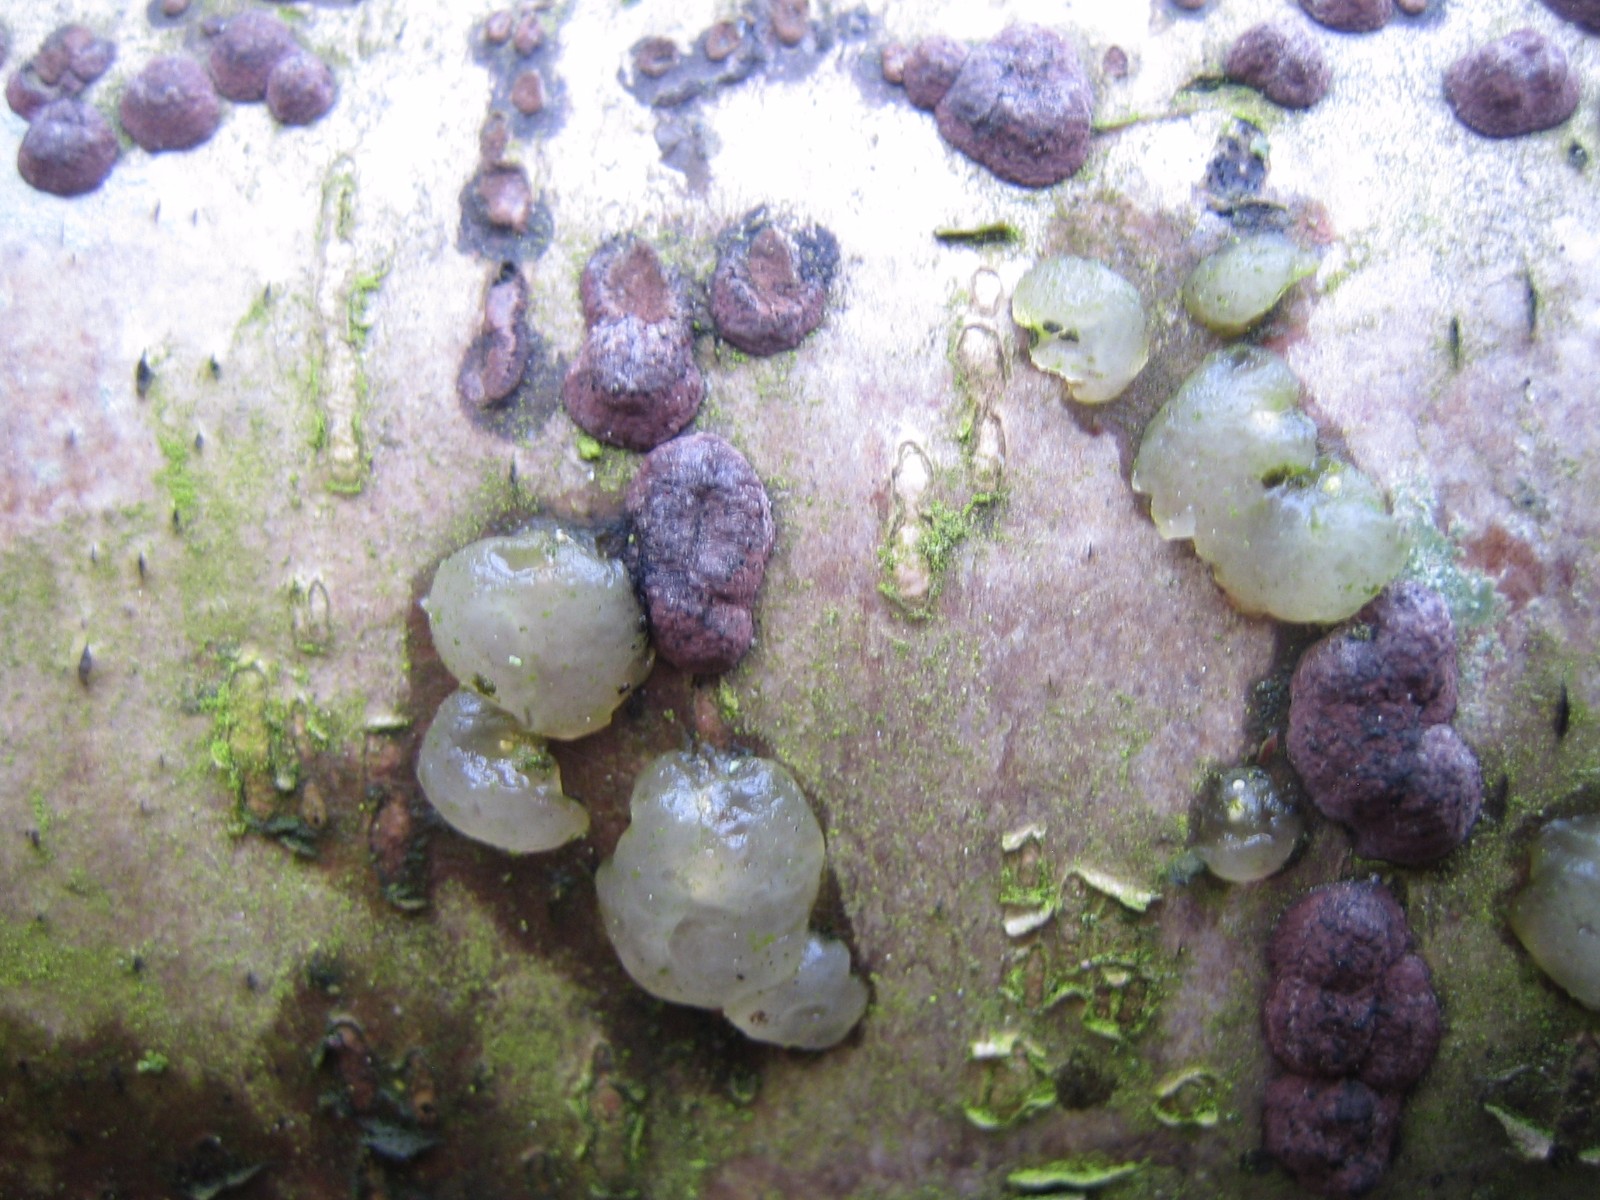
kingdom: Fungi
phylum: Ascomycota
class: Sordariomycetes
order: Xylariales
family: Hypoxylaceae
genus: Hypoxylon
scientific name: Hypoxylon fuscum
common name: kegleformet kulbær
